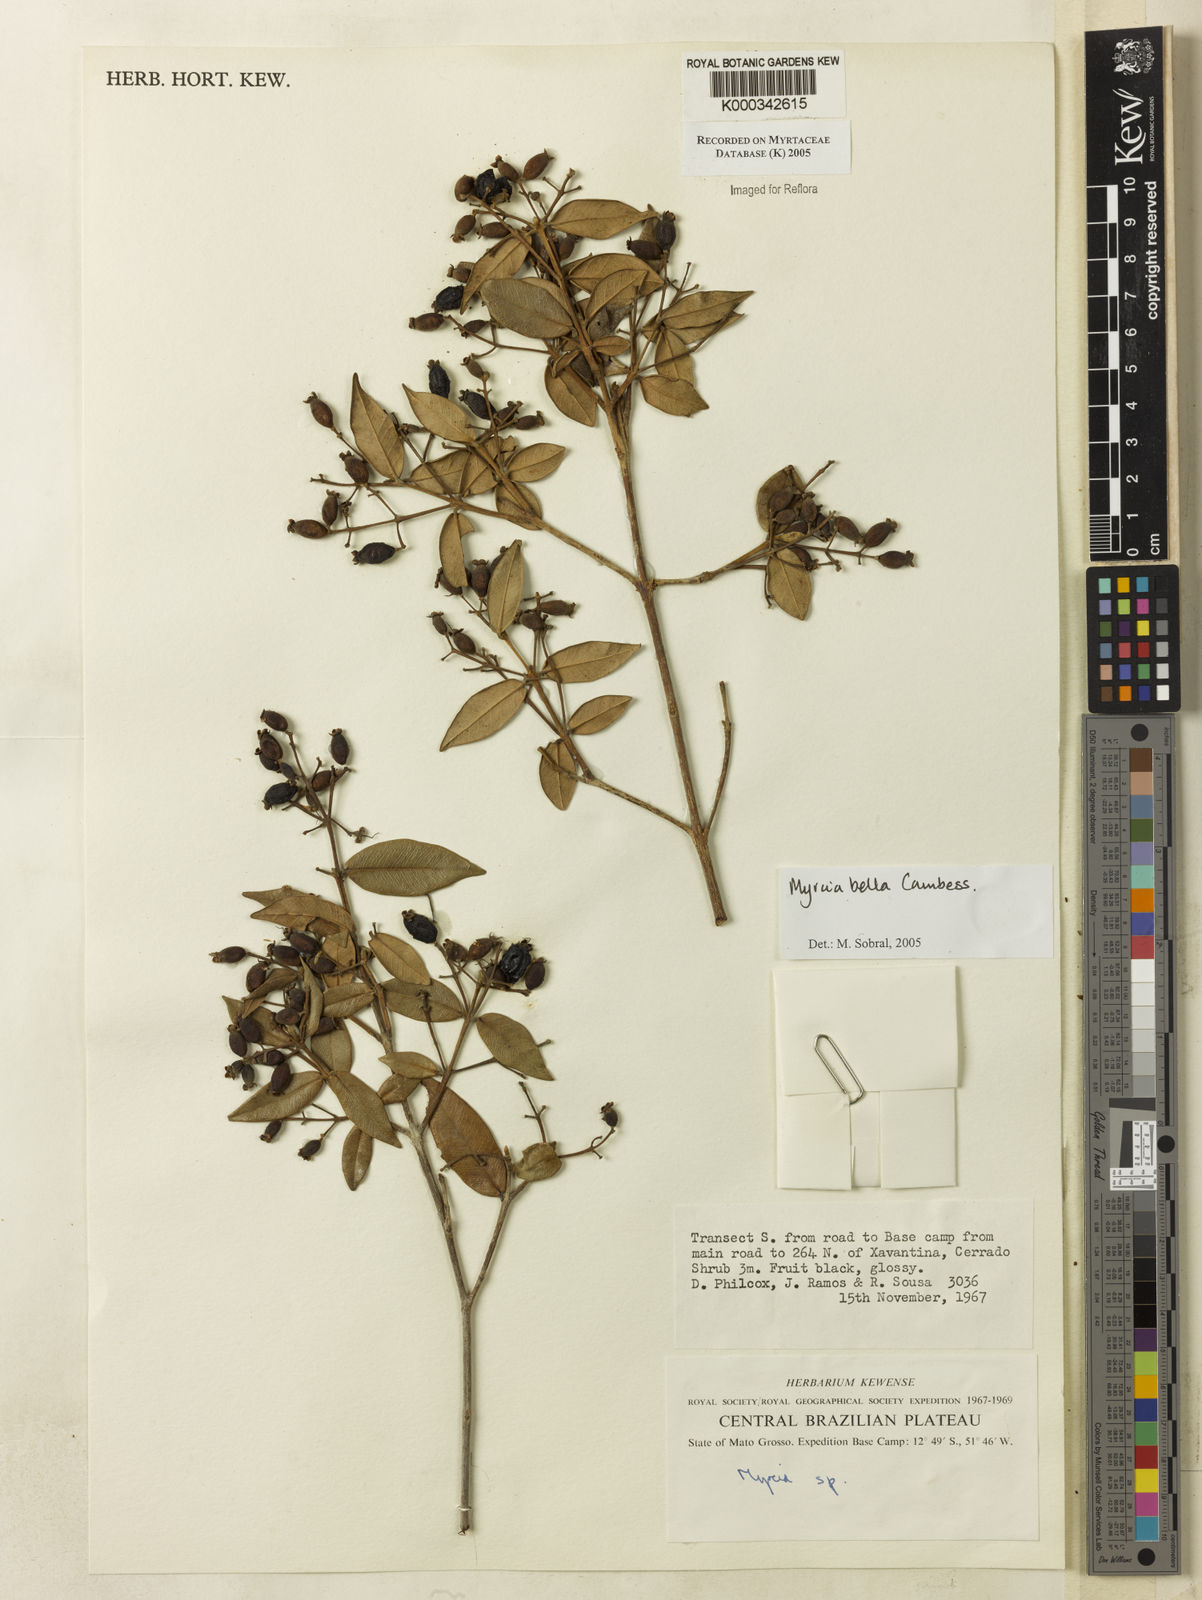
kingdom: Plantae
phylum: Tracheophyta
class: Magnoliopsida
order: Myrtales
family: Myrtaceae
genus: Myrcia
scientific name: Myrcia bella
